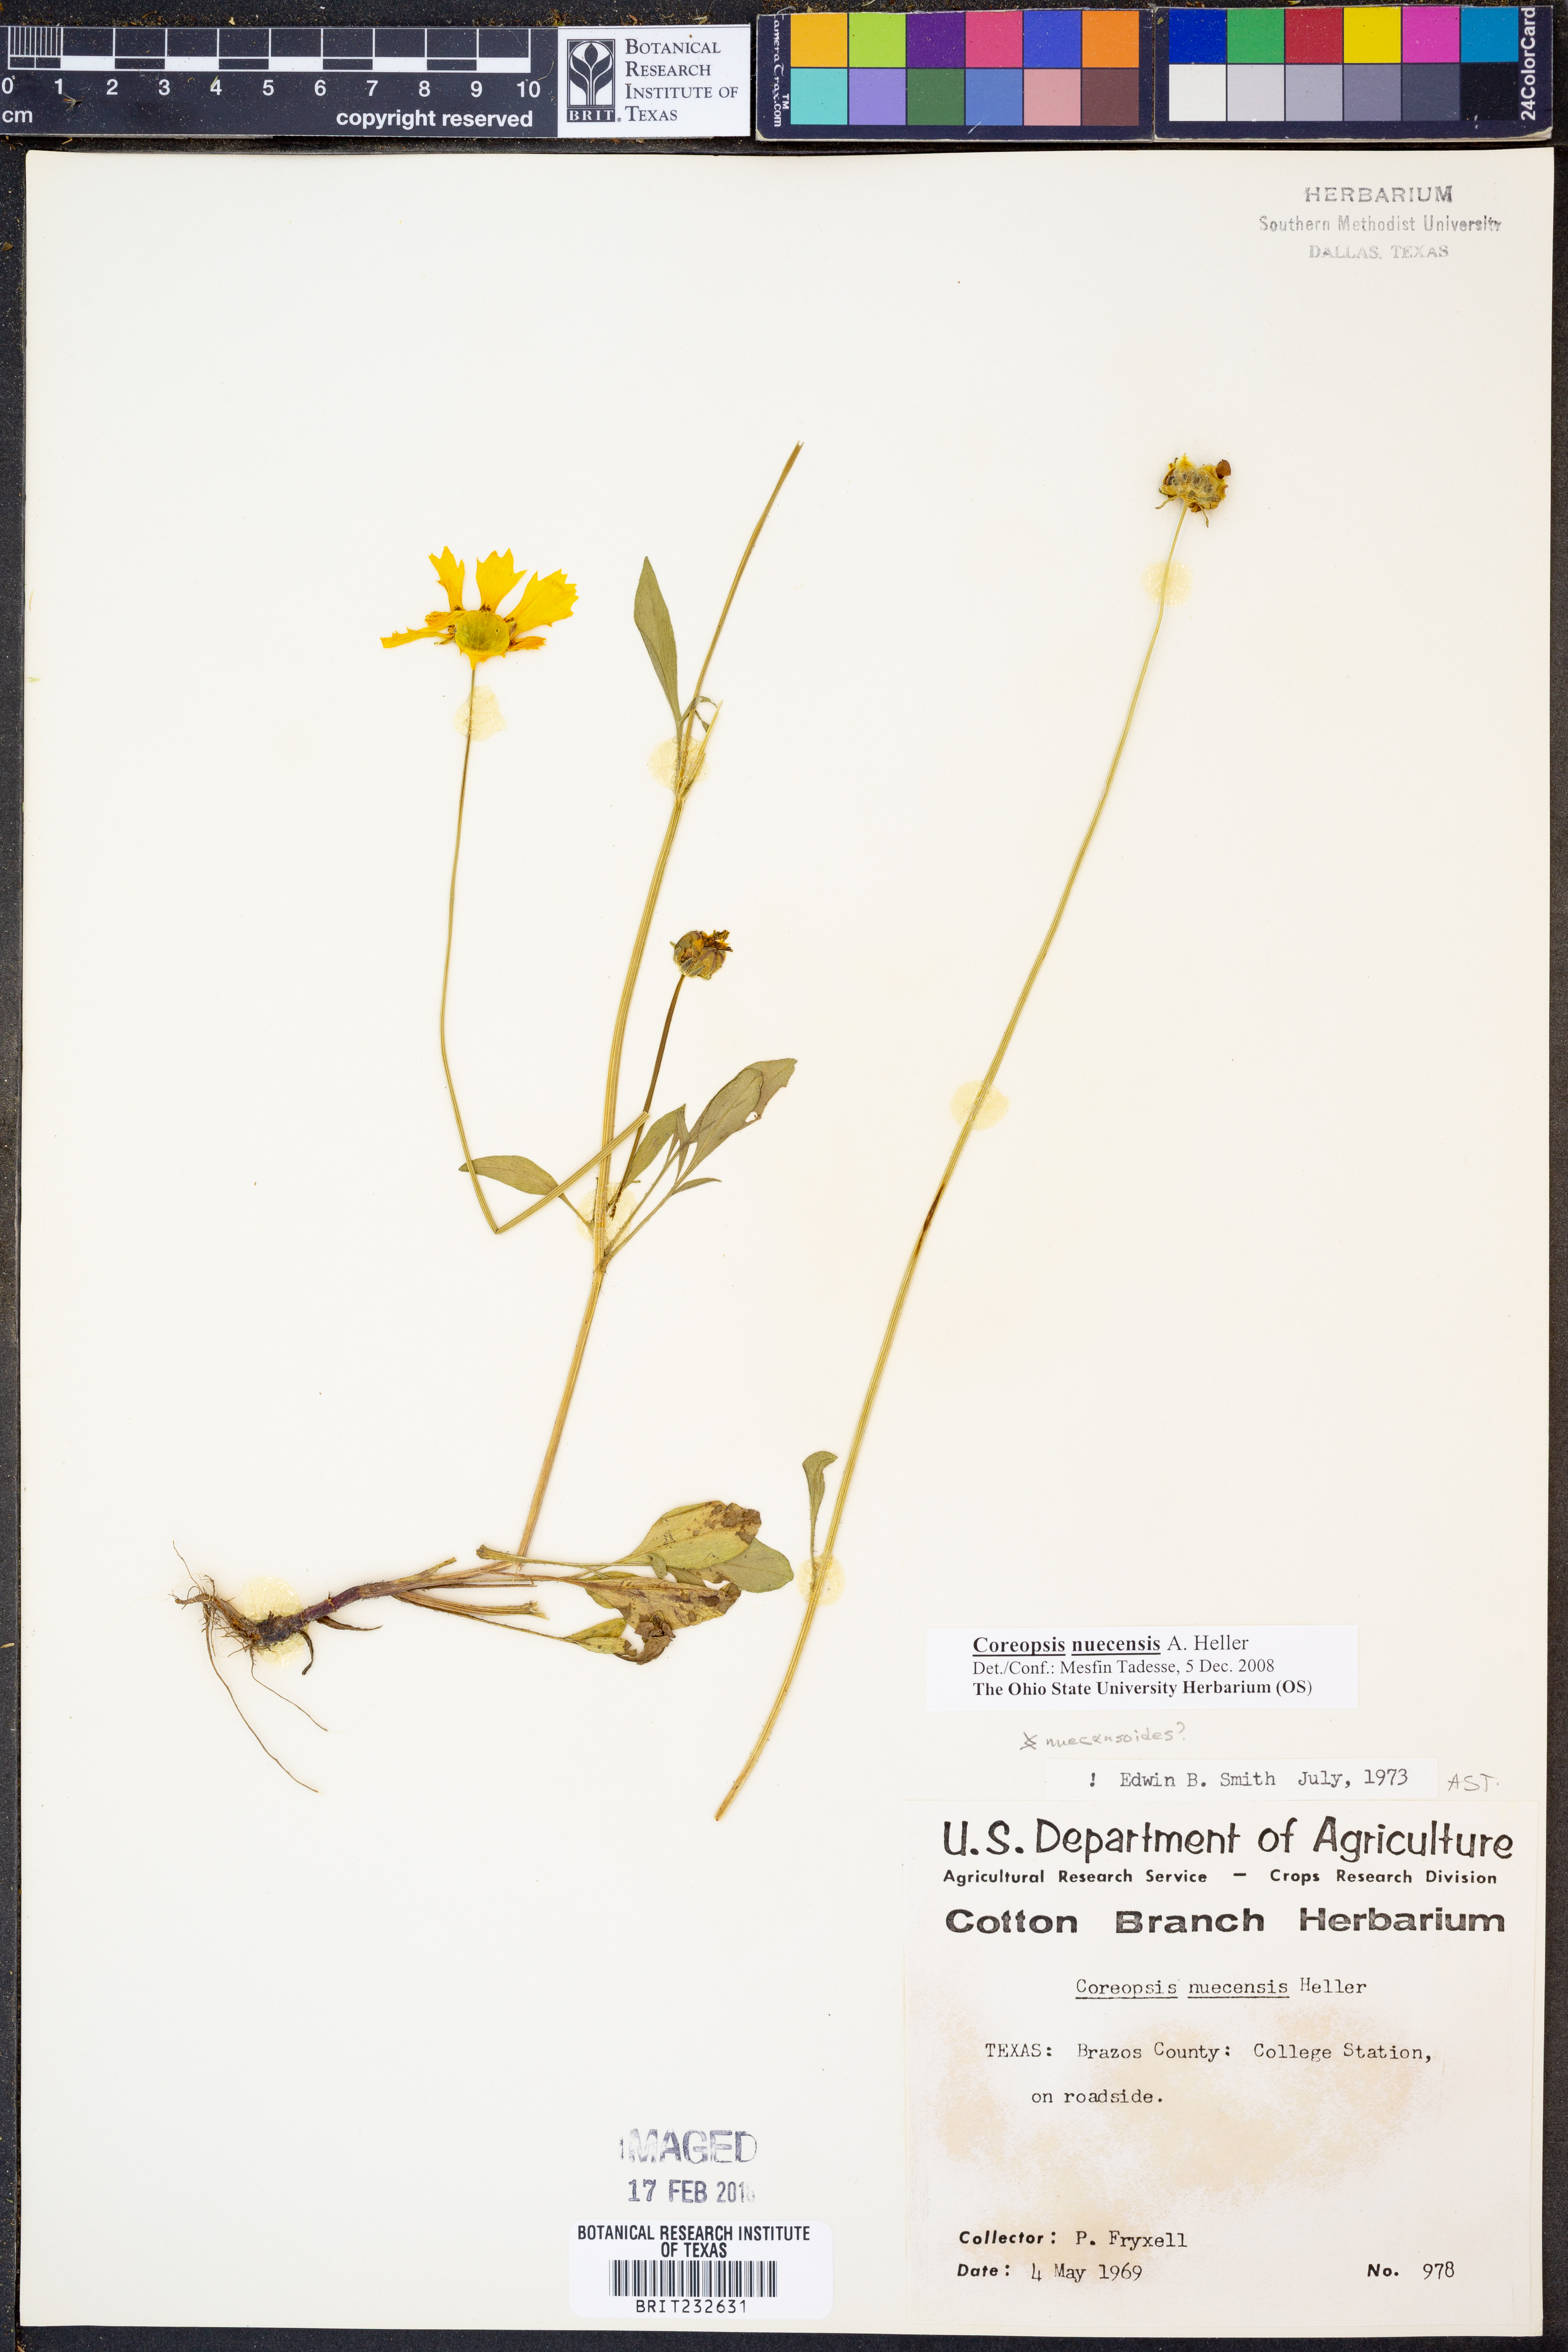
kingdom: Plantae
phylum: Tracheophyta
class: Magnoliopsida
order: Asterales
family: Asteraceae
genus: Coreopsis
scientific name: Coreopsis nuecensis
